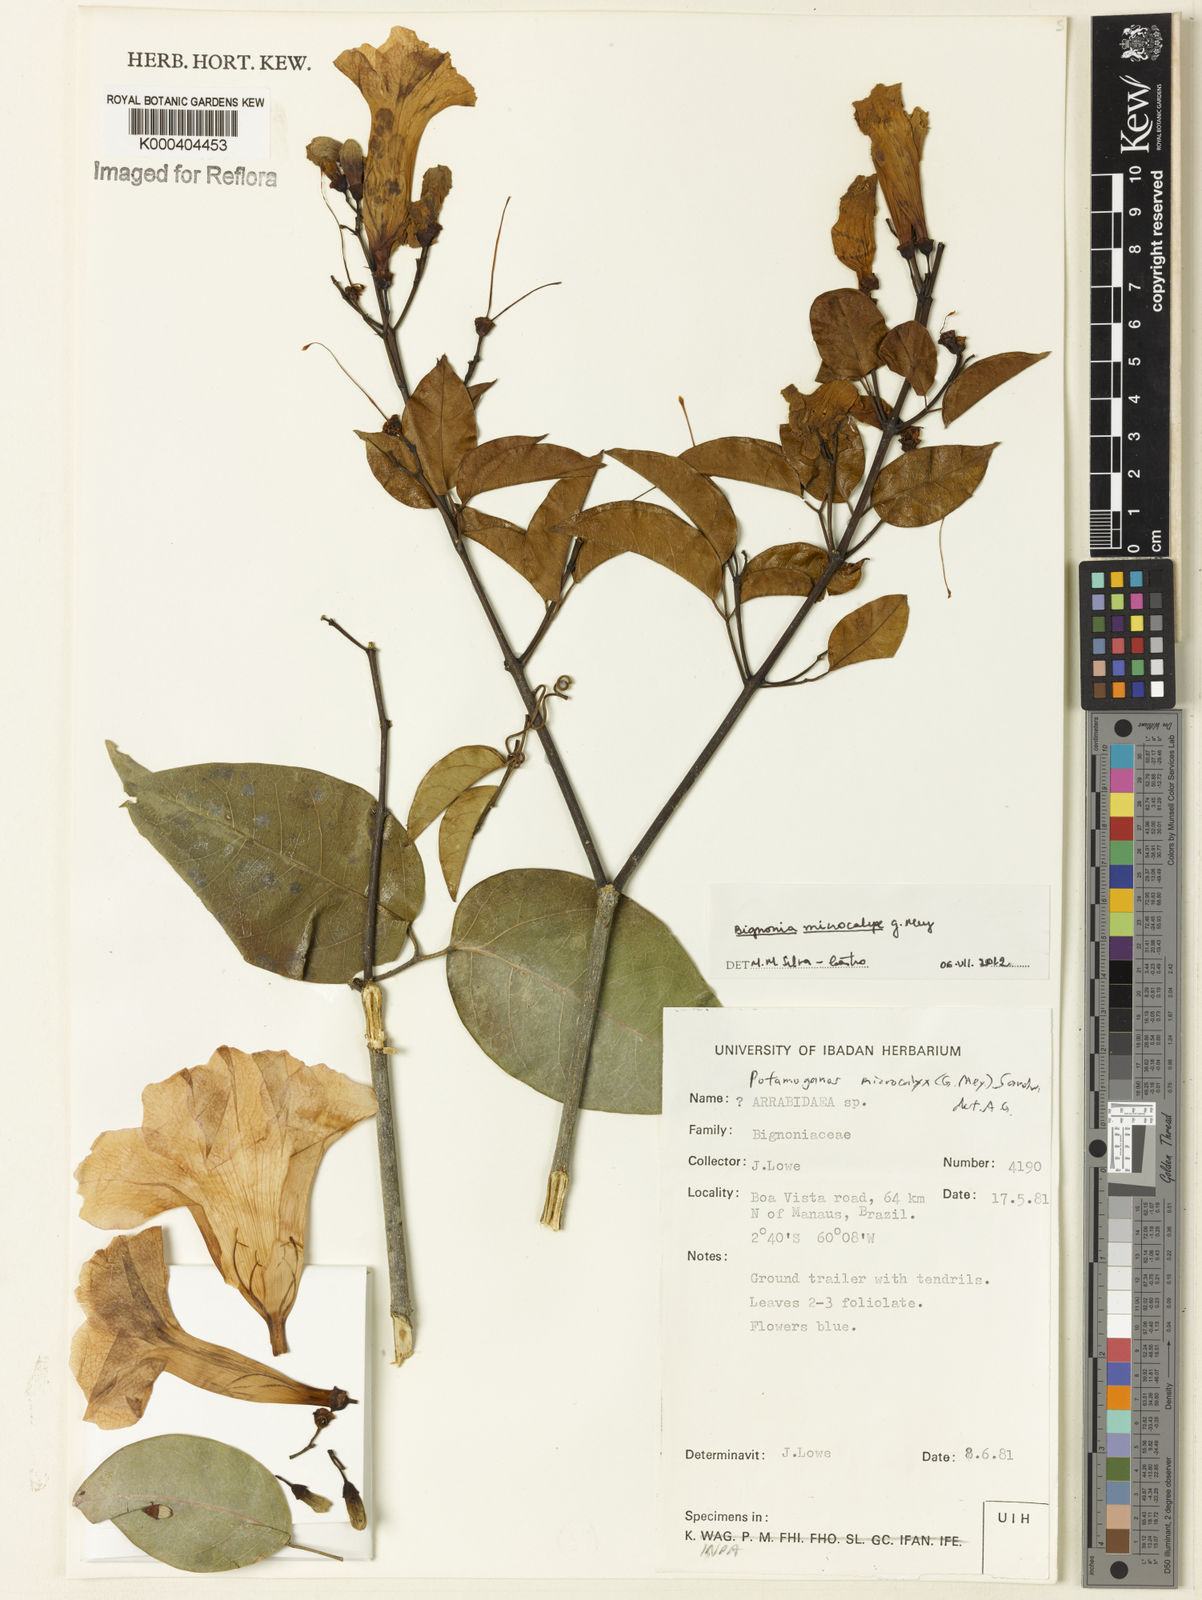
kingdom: Plantae
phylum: Tracheophyta
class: Magnoliopsida
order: Lamiales
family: Bignoniaceae
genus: Bignonia
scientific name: Bignonia microcalyx
